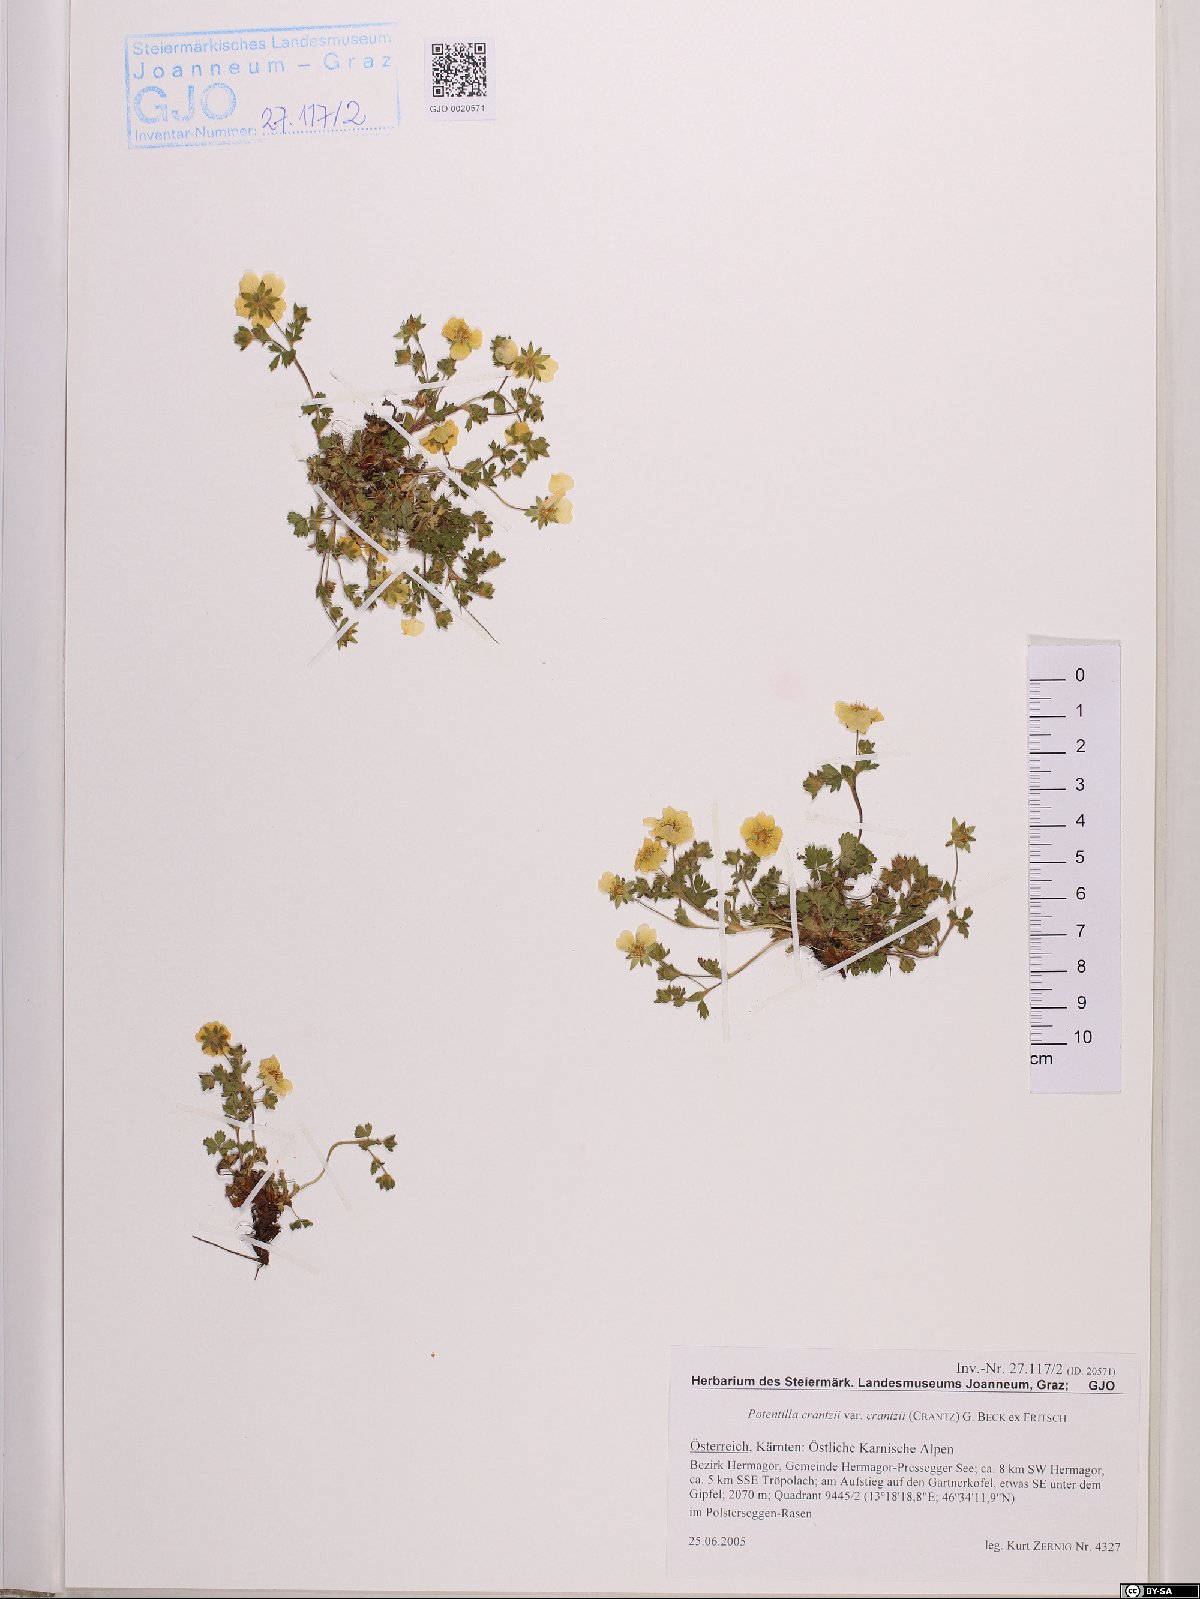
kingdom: Plantae
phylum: Tracheophyta
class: Magnoliopsida
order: Rosales
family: Rosaceae
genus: Potentilla
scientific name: Potentilla crantzii
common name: Alpine cinquefoil
